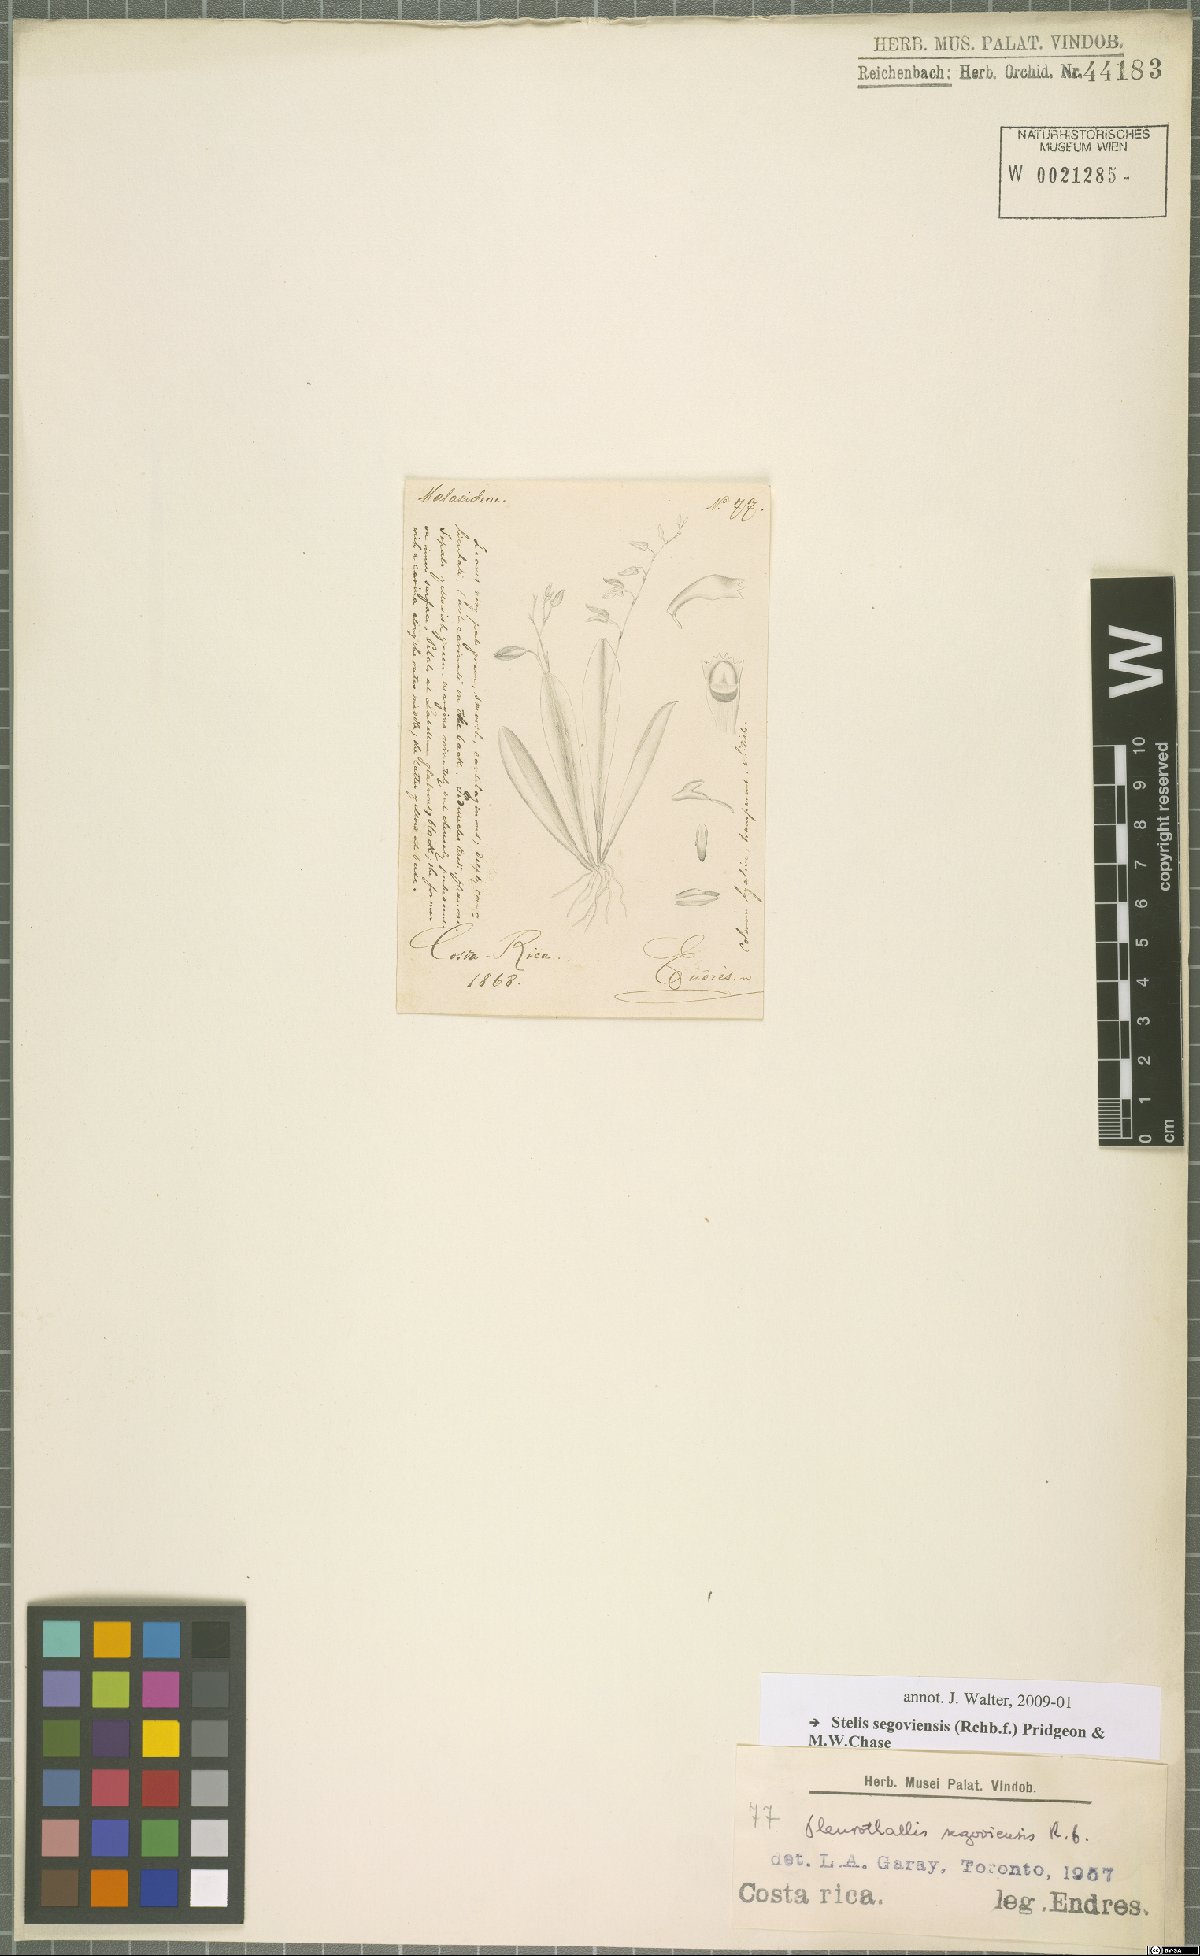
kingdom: Plantae
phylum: Tracheophyta
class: Liliopsida
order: Asparagales
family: Orchidaceae
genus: Stelis
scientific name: Stelis segoviensis
